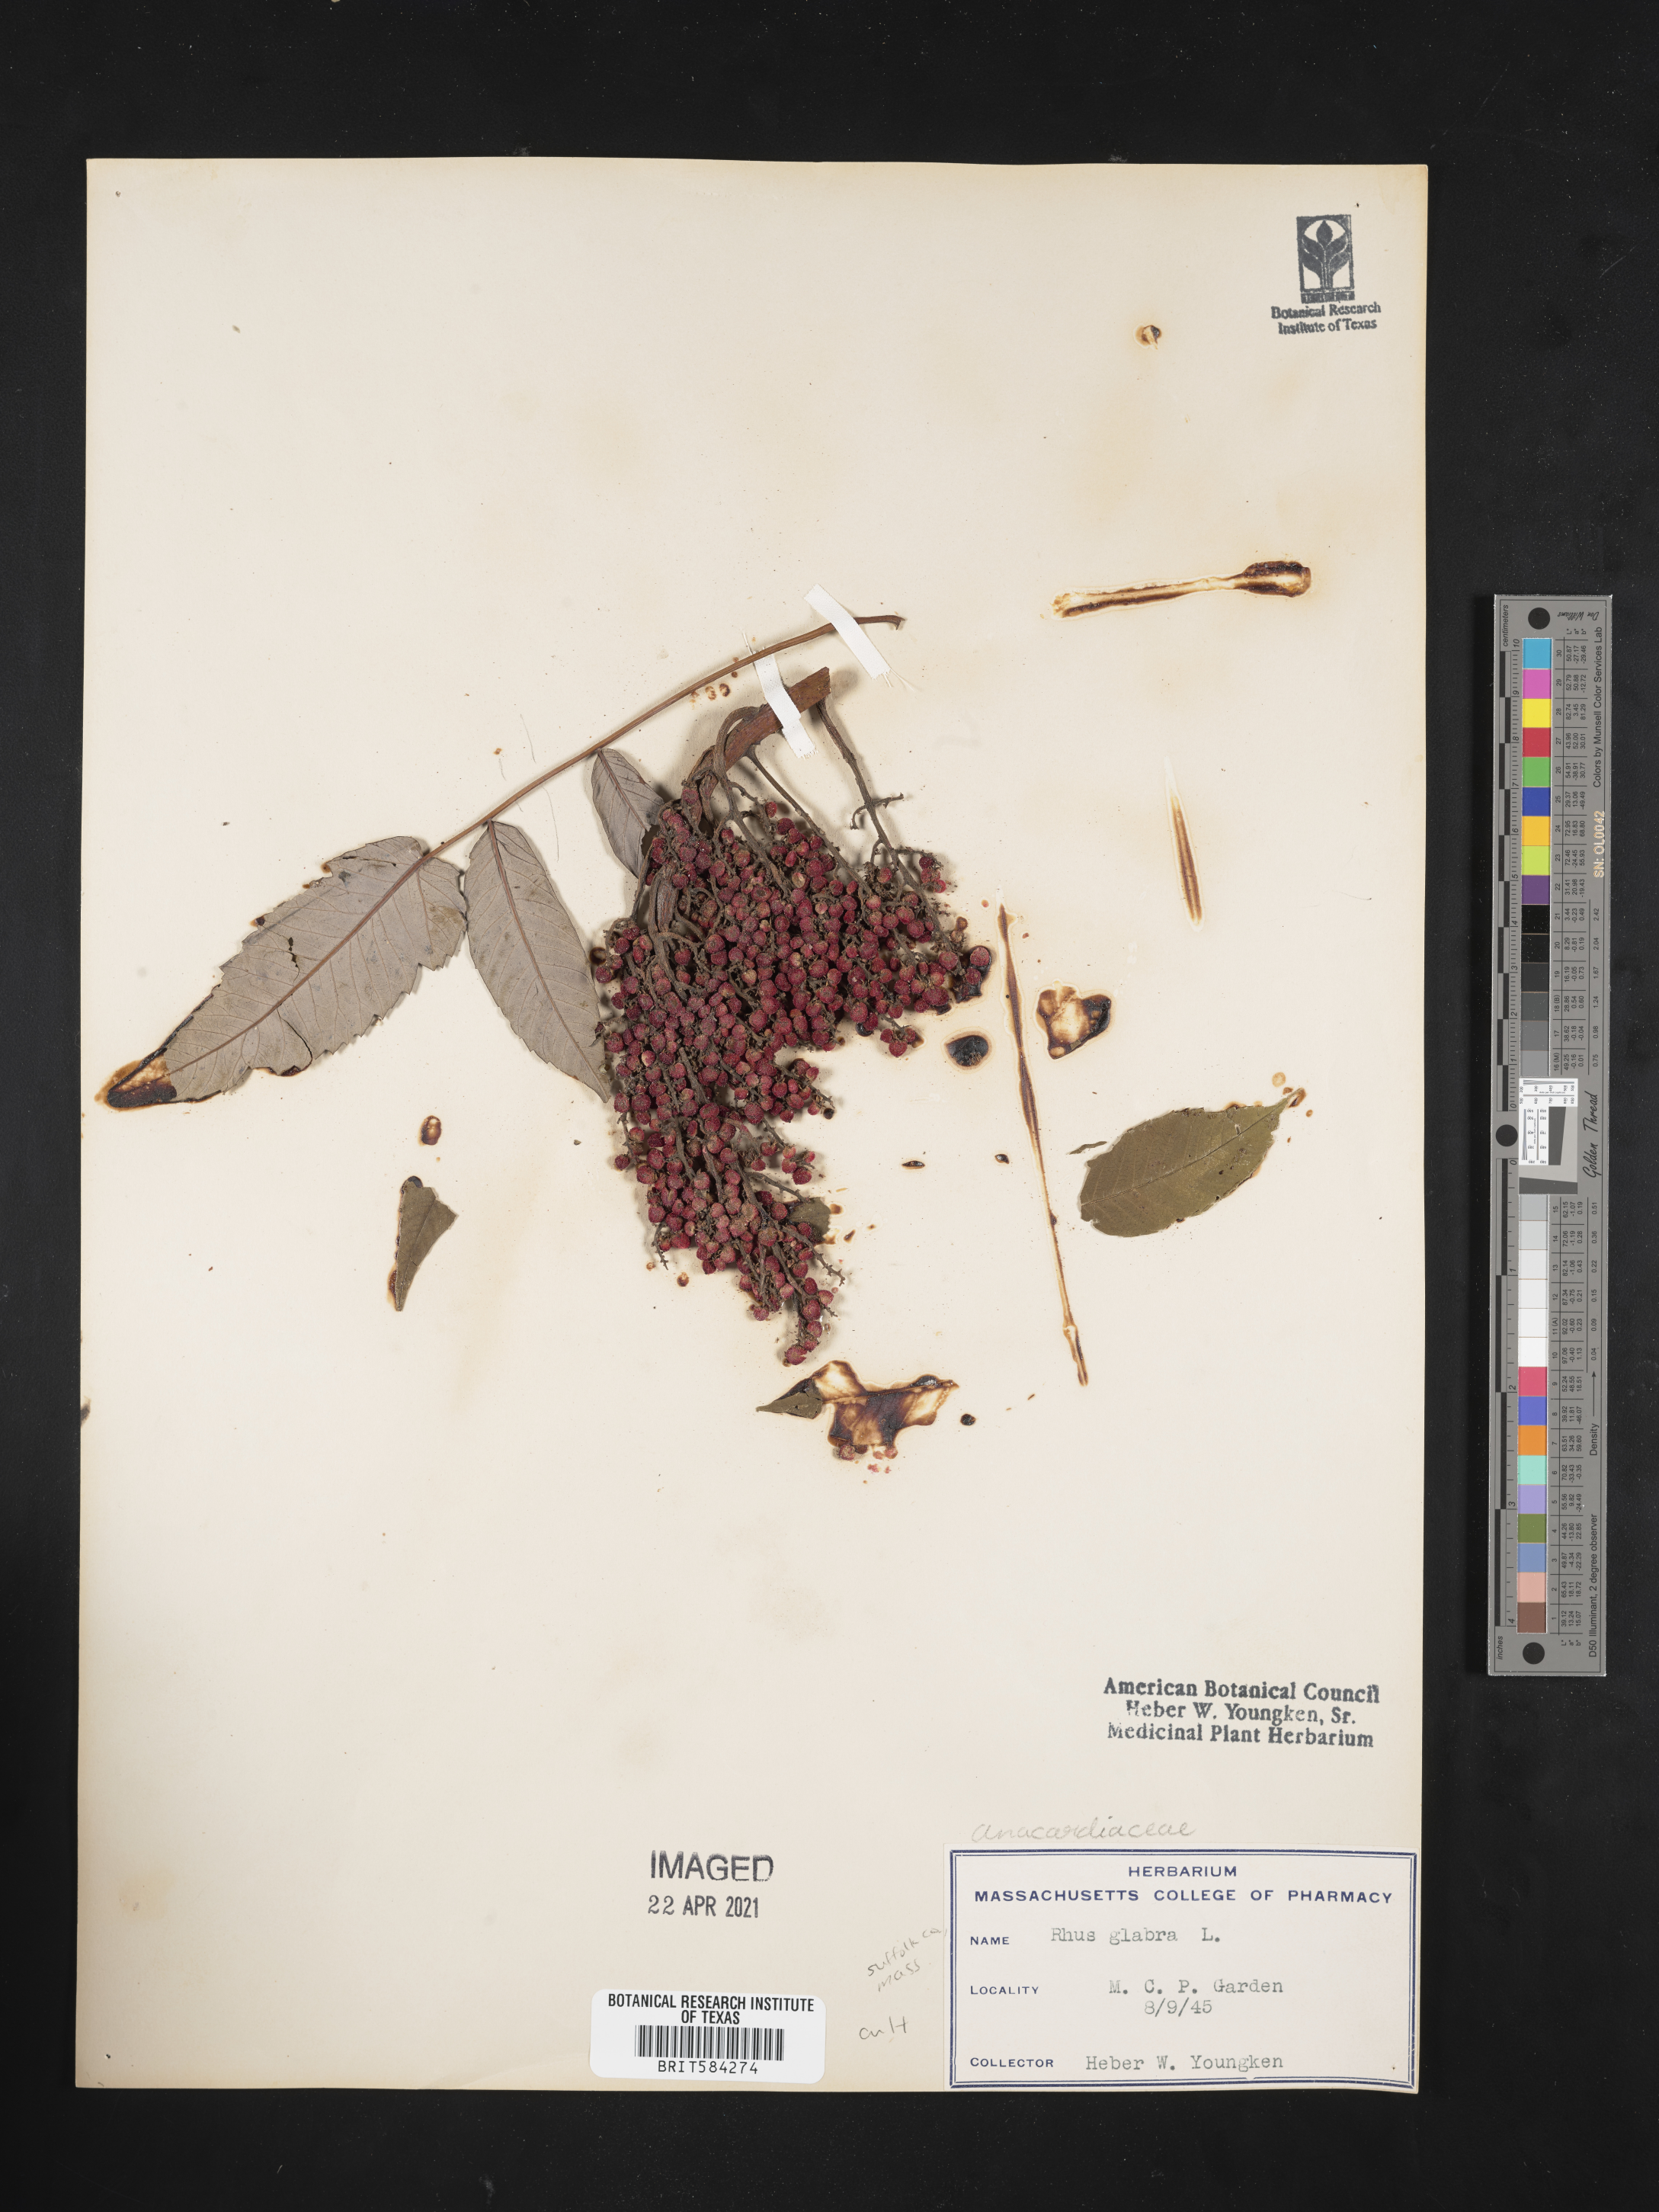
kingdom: Plantae
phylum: Tracheophyta
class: Magnoliopsida
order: Sapindales
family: Anacardiaceae
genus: Rhus
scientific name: Rhus glabra
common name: Scarlet sumac
